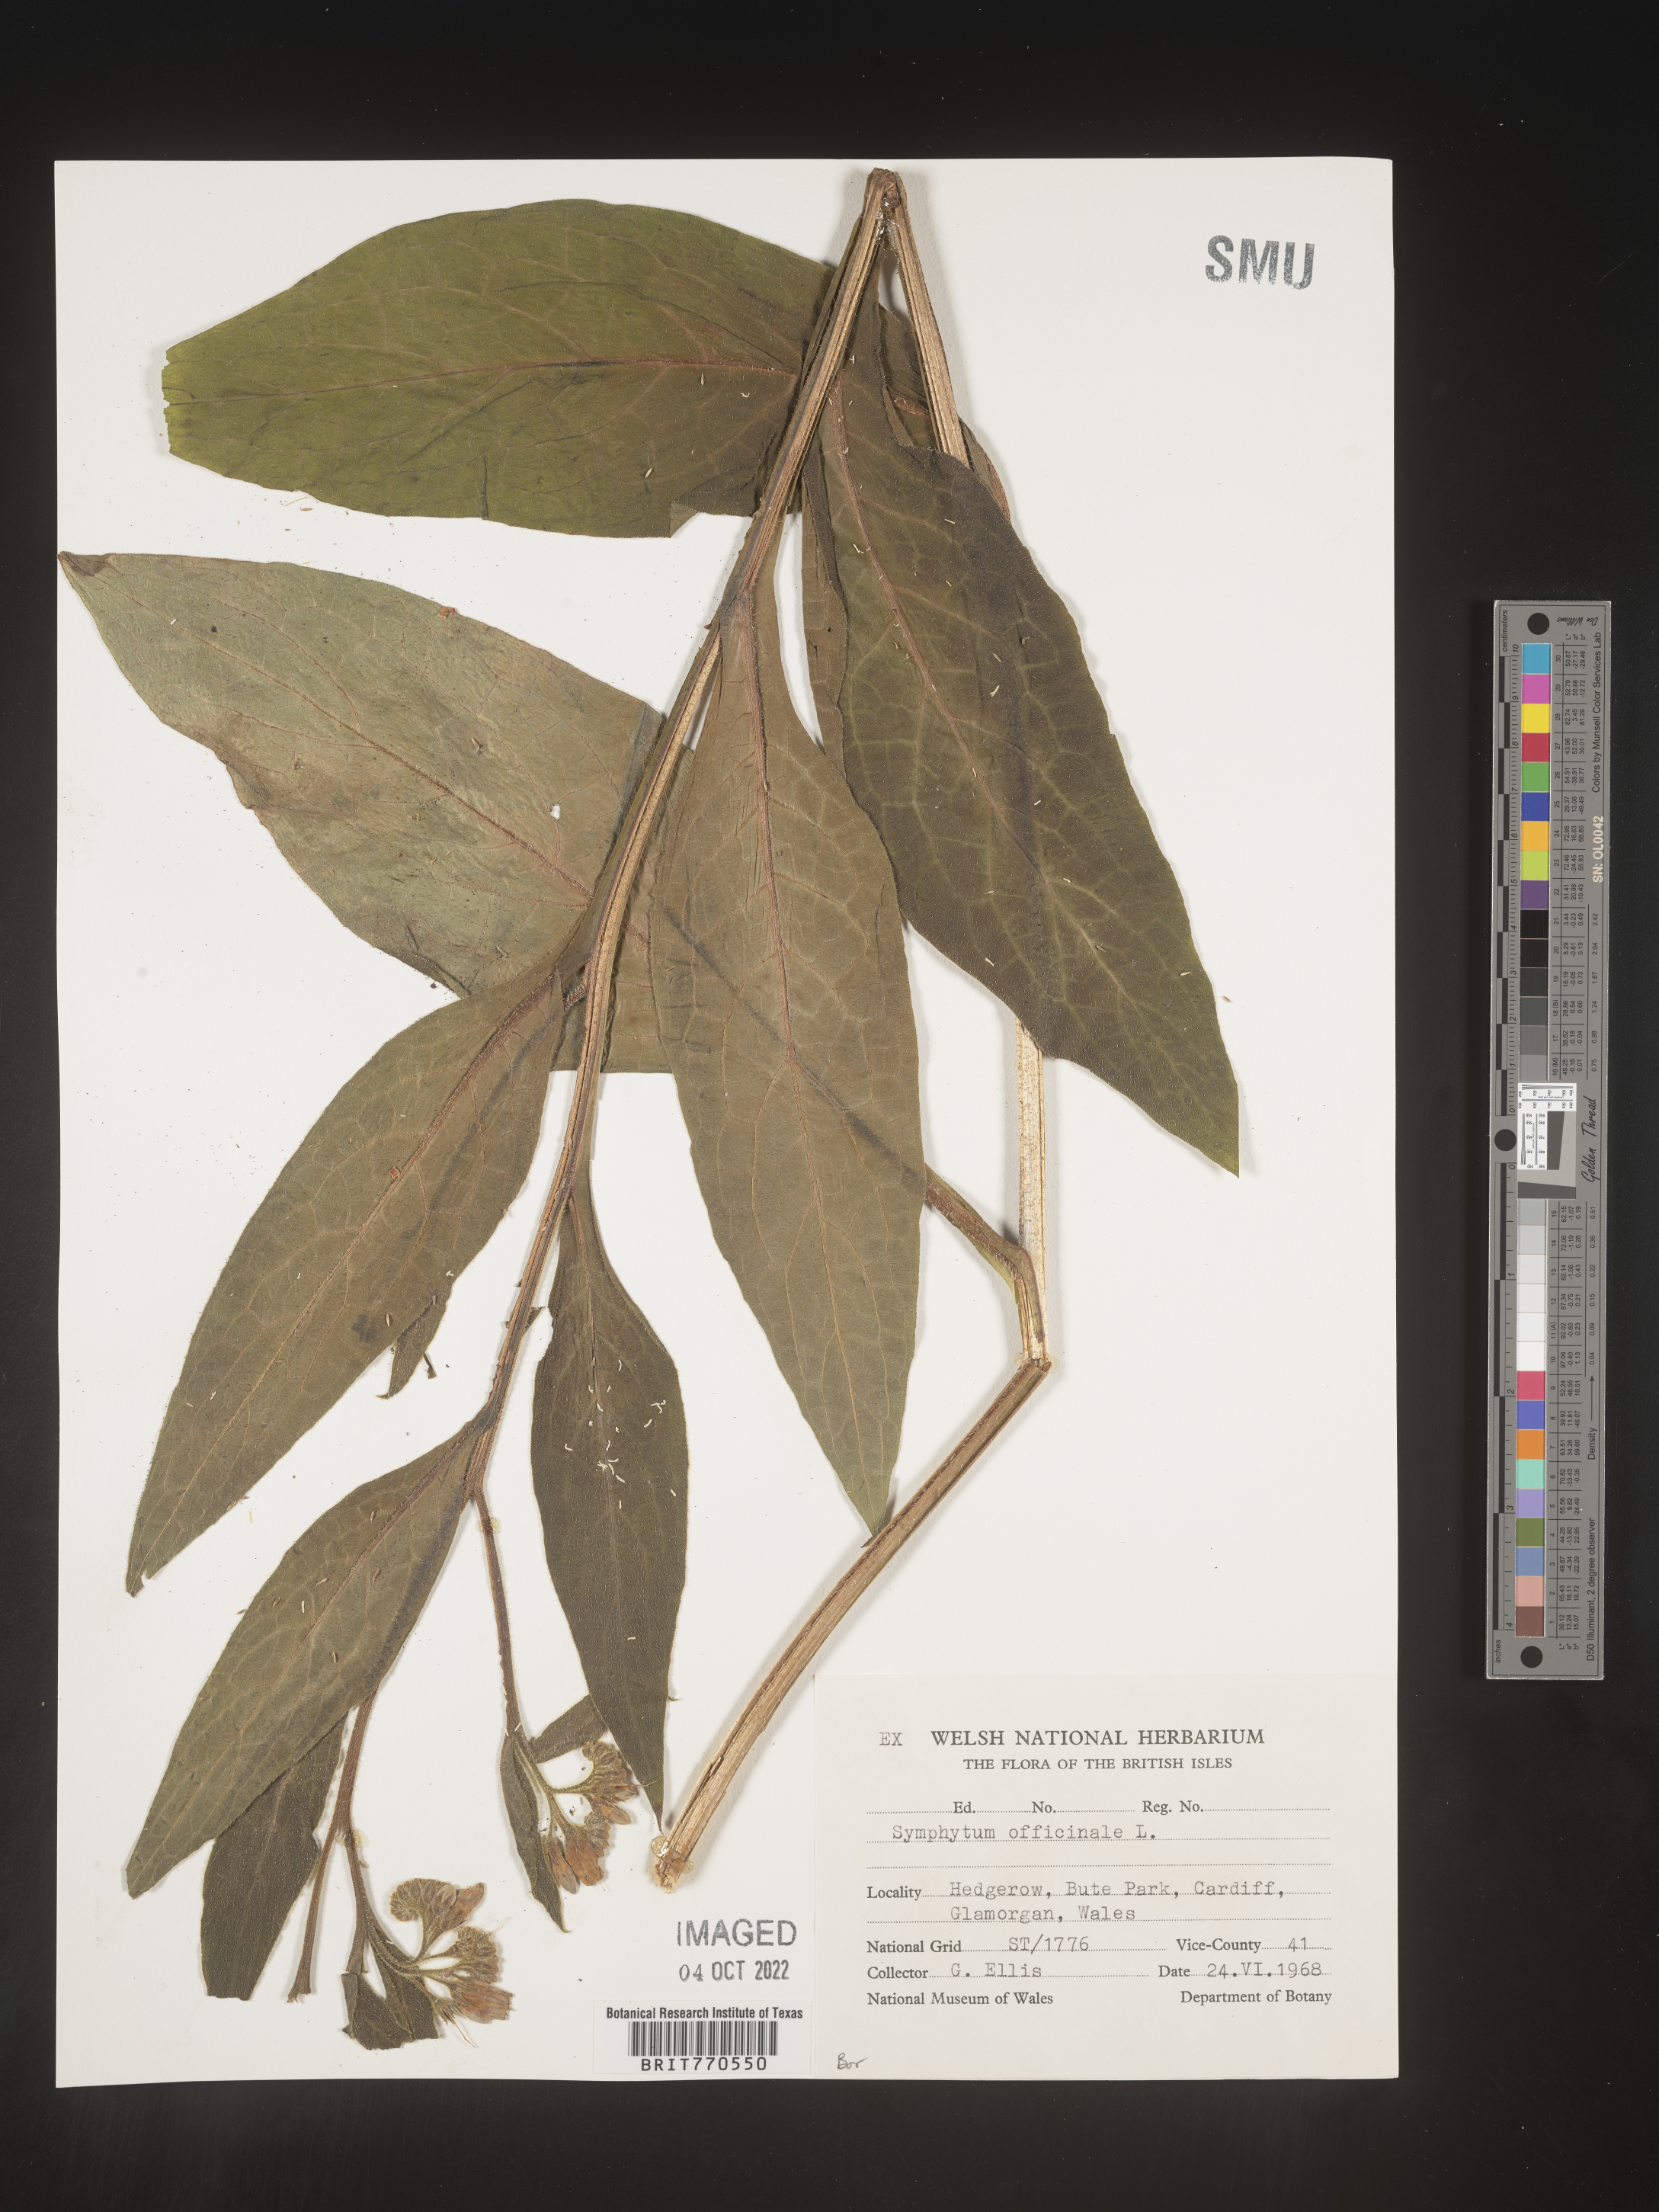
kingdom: Plantae
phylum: Tracheophyta
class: Magnoliopsida
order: Boraginales
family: Boraginaceae
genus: Symphytum
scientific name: Symphytum
